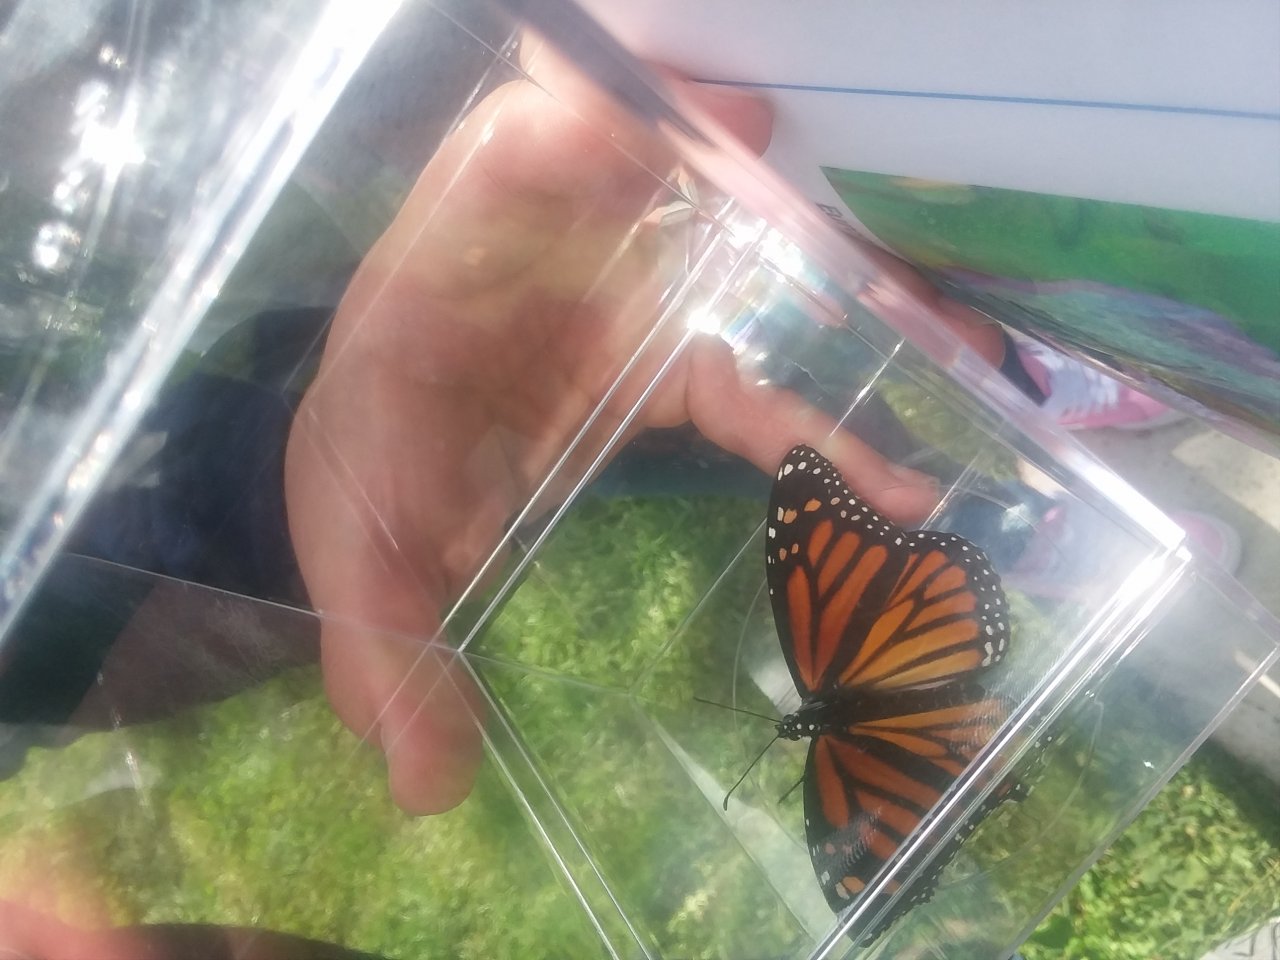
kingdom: Animalia
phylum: Arthropoda
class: Insecta
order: Lepidoptera
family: Nymphalidae
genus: Danaus
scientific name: Danaus plexippus
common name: Monarch
